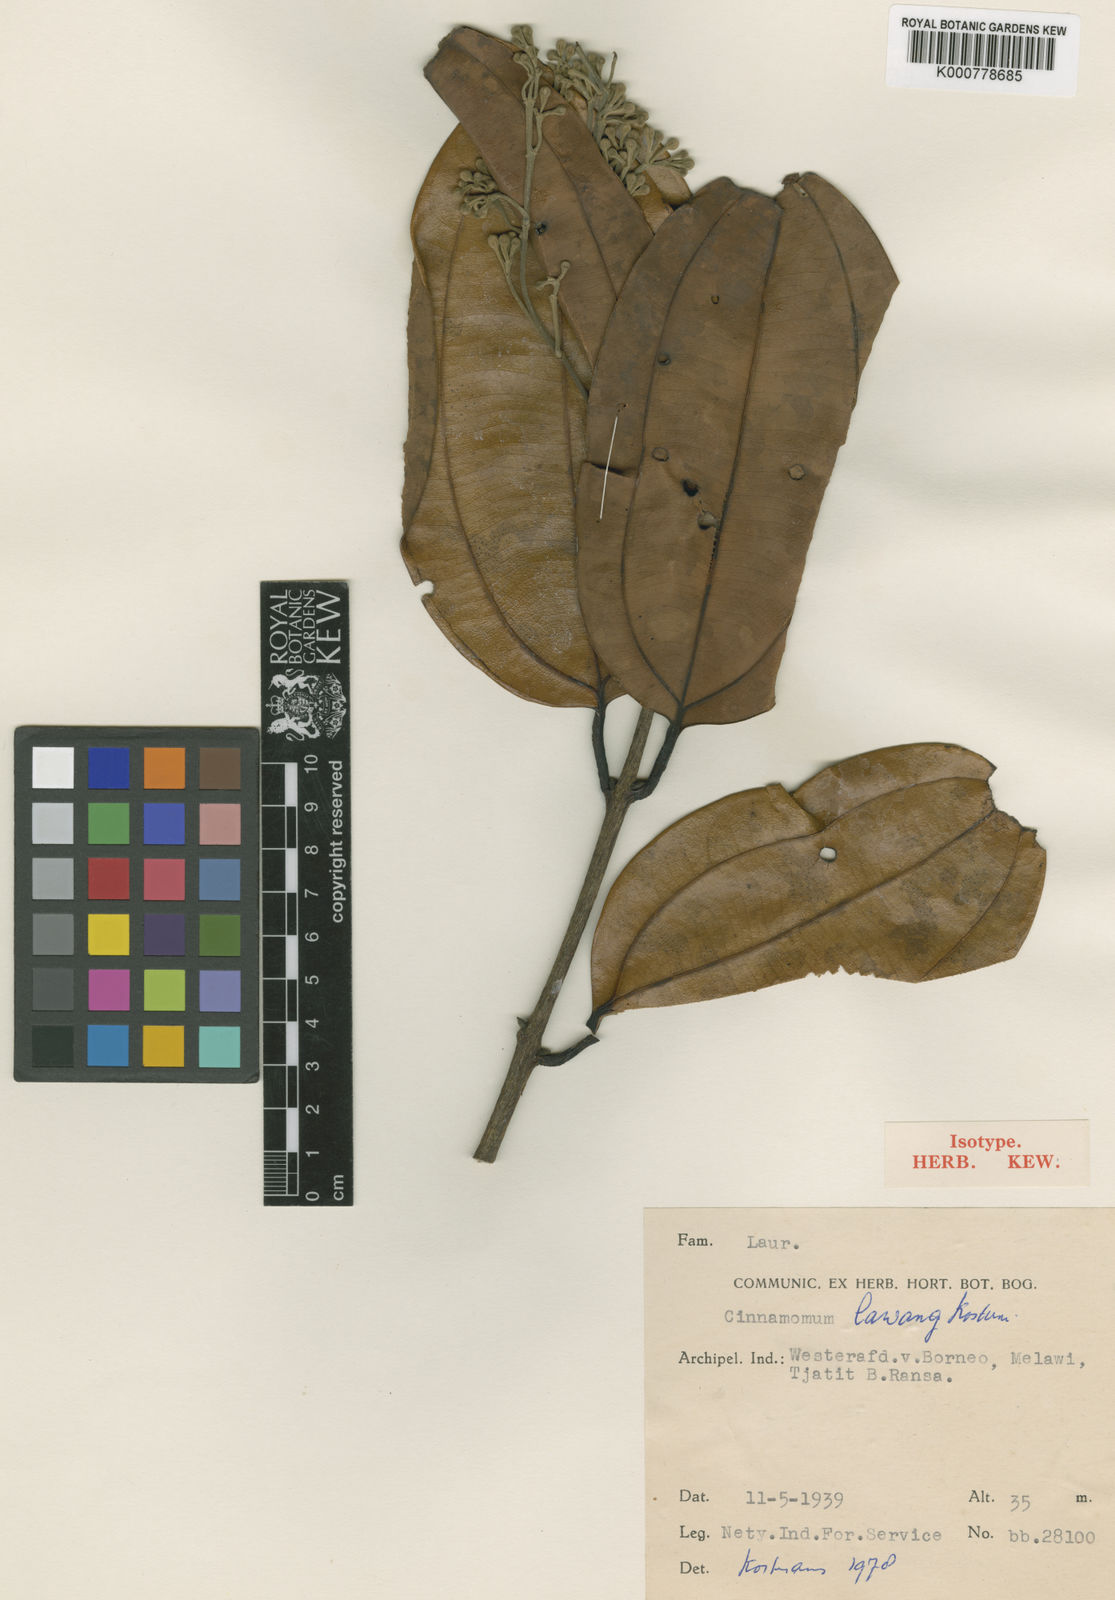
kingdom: Plantae
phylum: Tracheophyta
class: Magnoliopsida
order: Laurales
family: Lauraceae
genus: Cinnamomum
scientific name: Cinnamomum lawang
